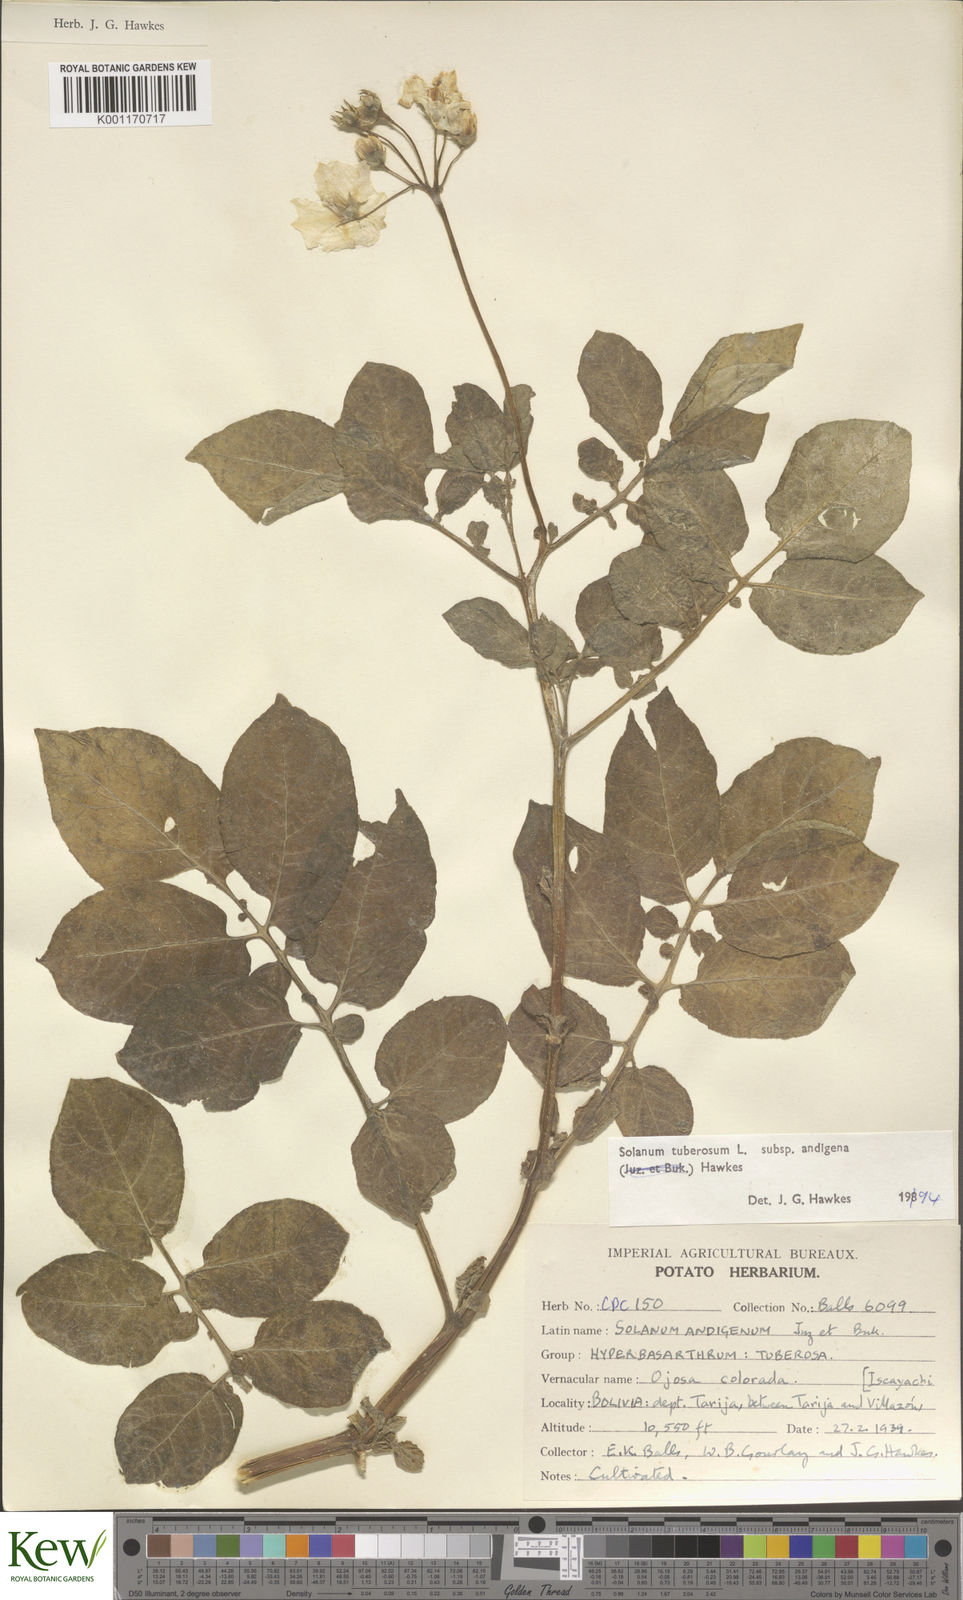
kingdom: Plantae
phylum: Tracheophyta
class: Magnoliopsida
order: Solanales
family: Solanaceae
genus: Solanum
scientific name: Solanum tuberosum
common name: Potato
